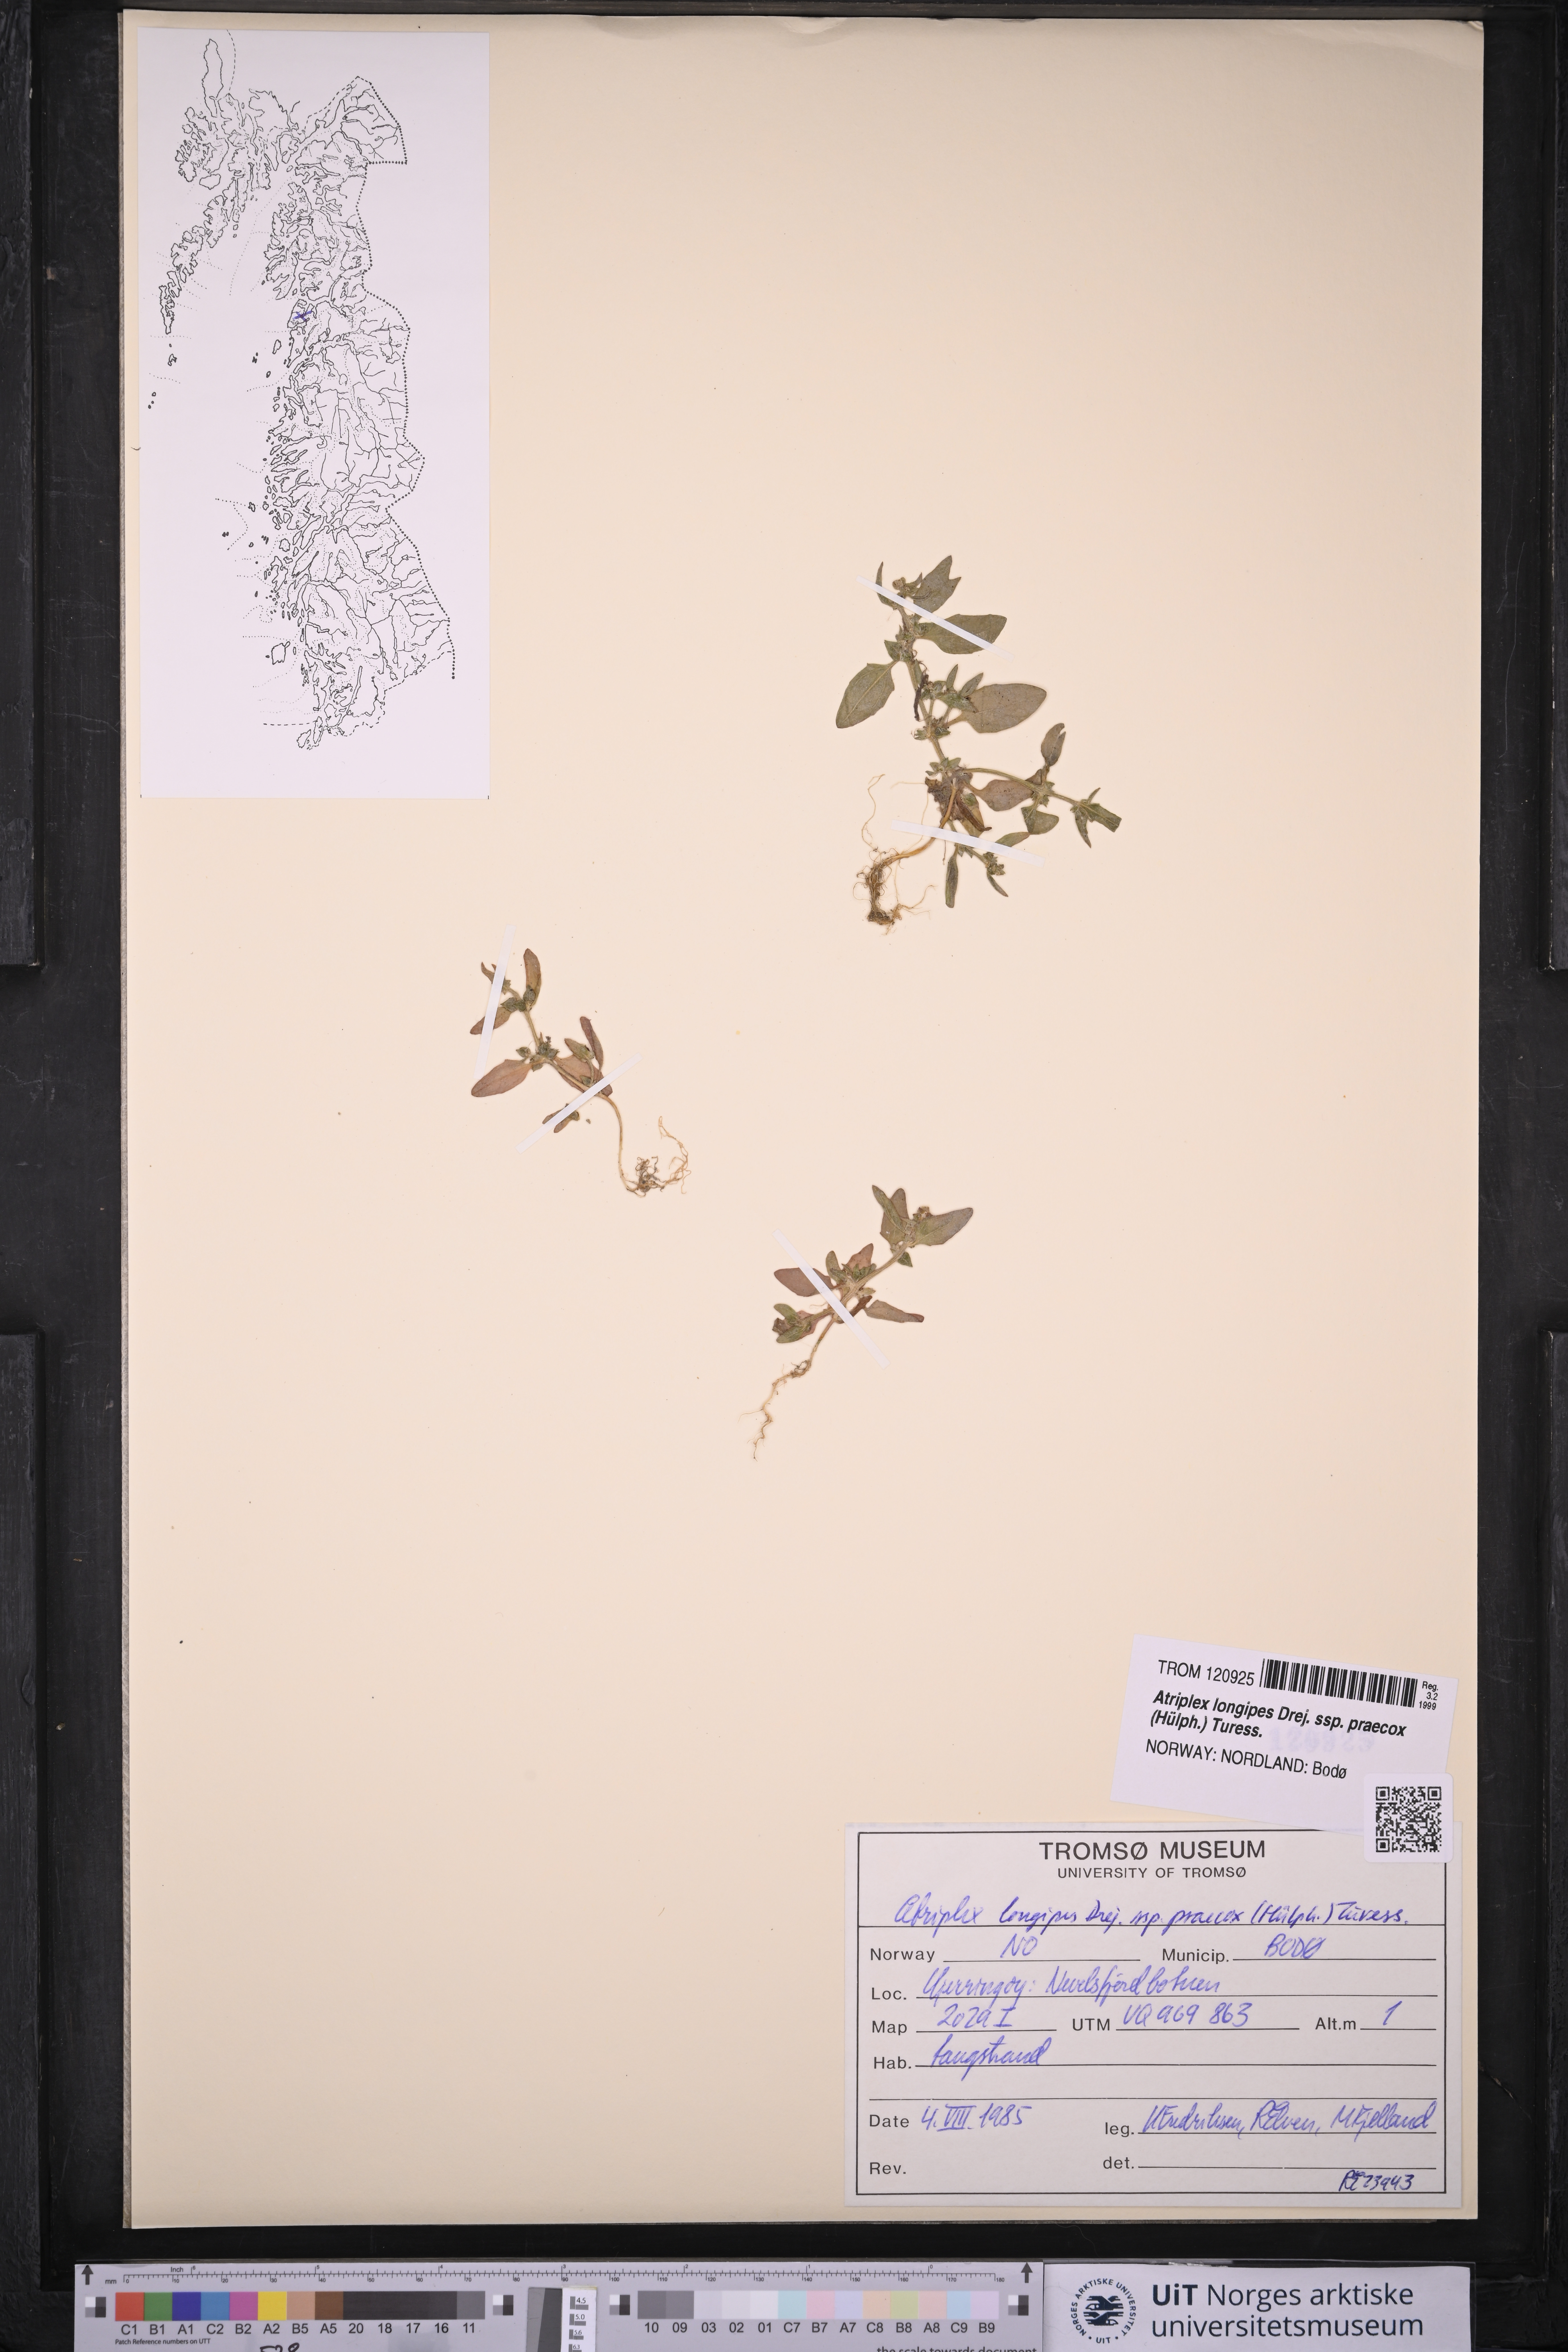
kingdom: Plantae
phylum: Tracheophyta
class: Magnoliopsida
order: Caryophyllales
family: Amaranthaceae
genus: Atriplex
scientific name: Atriplex praecox
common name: Early orache
